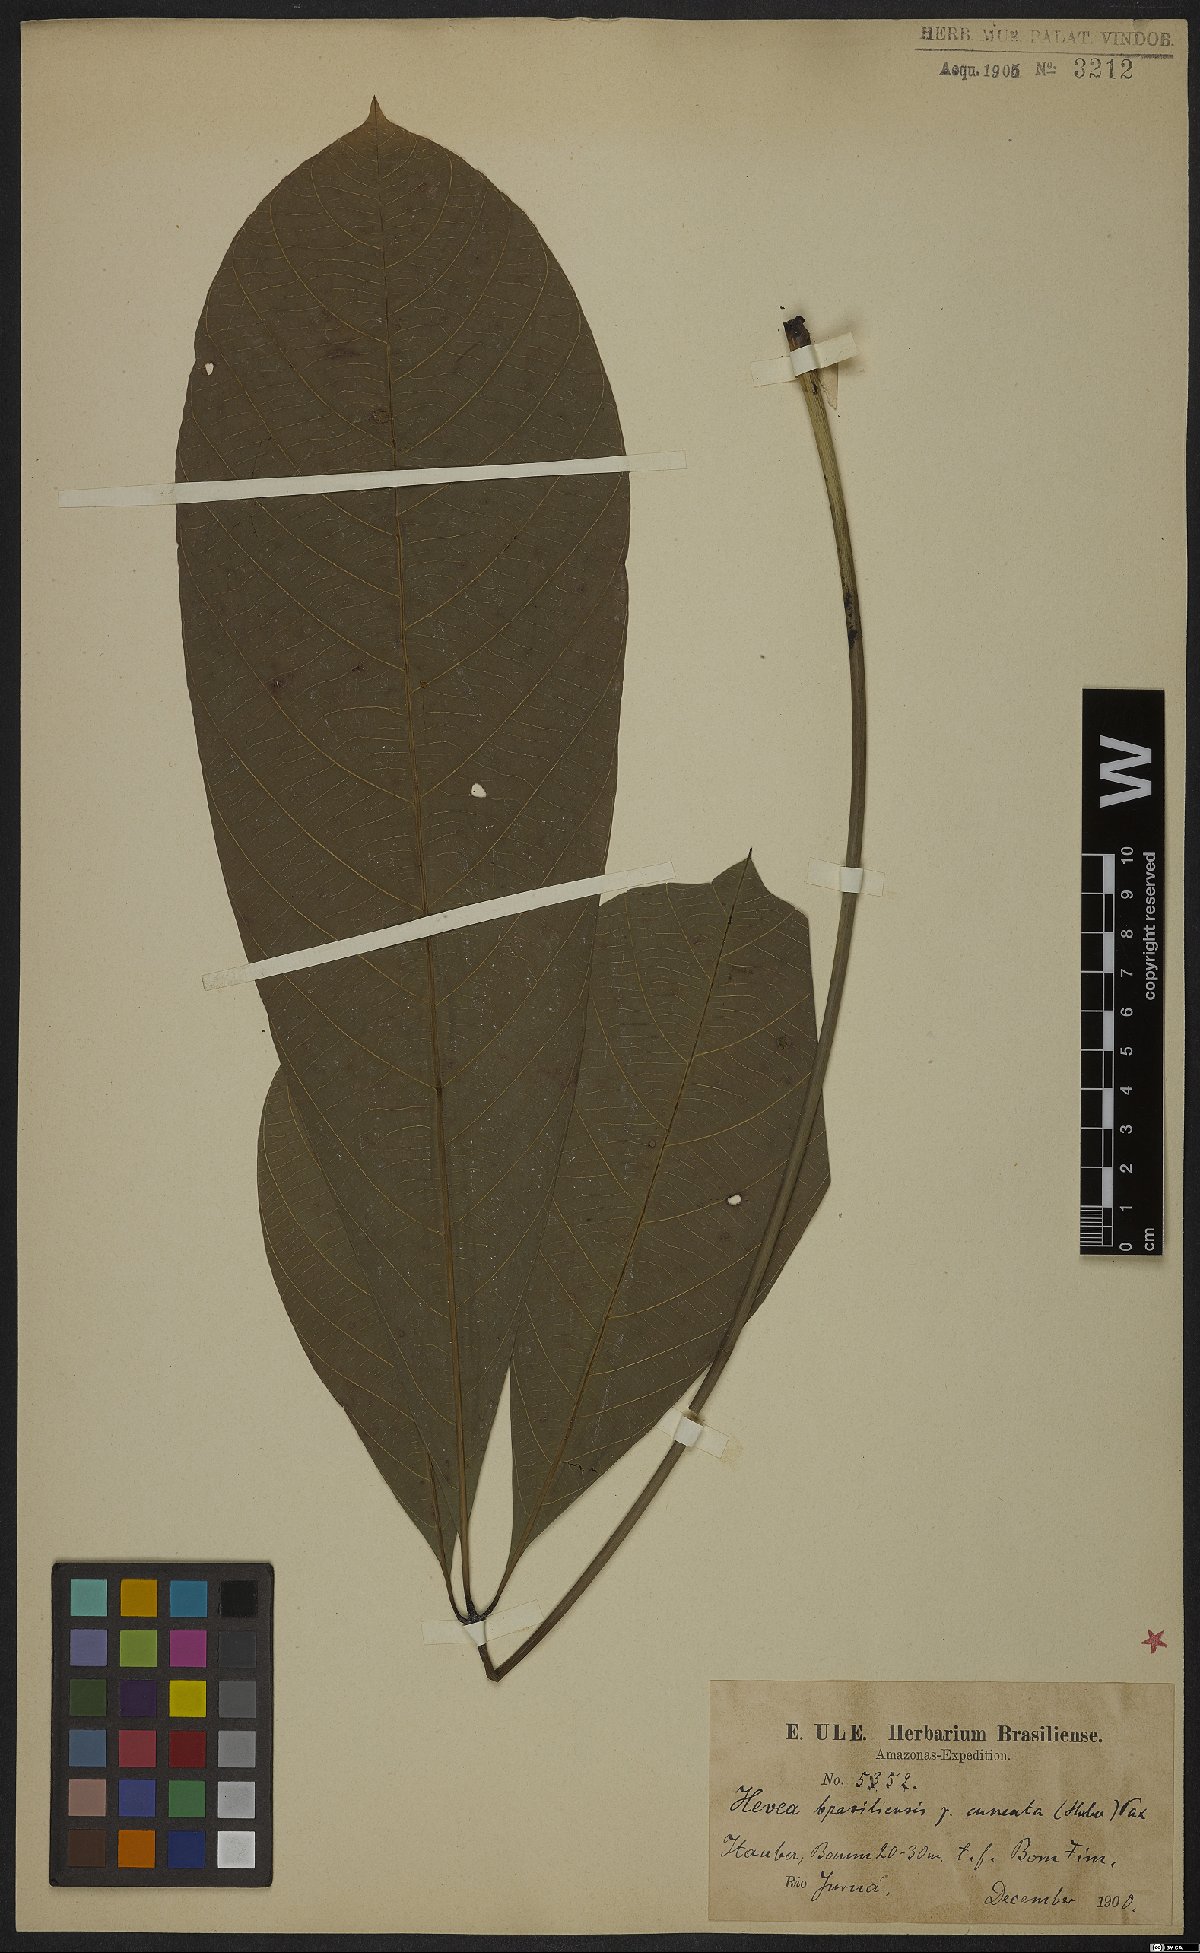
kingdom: Plantae
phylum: Tracheophyta
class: Magnoliopsida
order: Malpighiales
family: Euphorbiaceae
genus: Hevea
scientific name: Hevea brasiliensis
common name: Natural rubber
